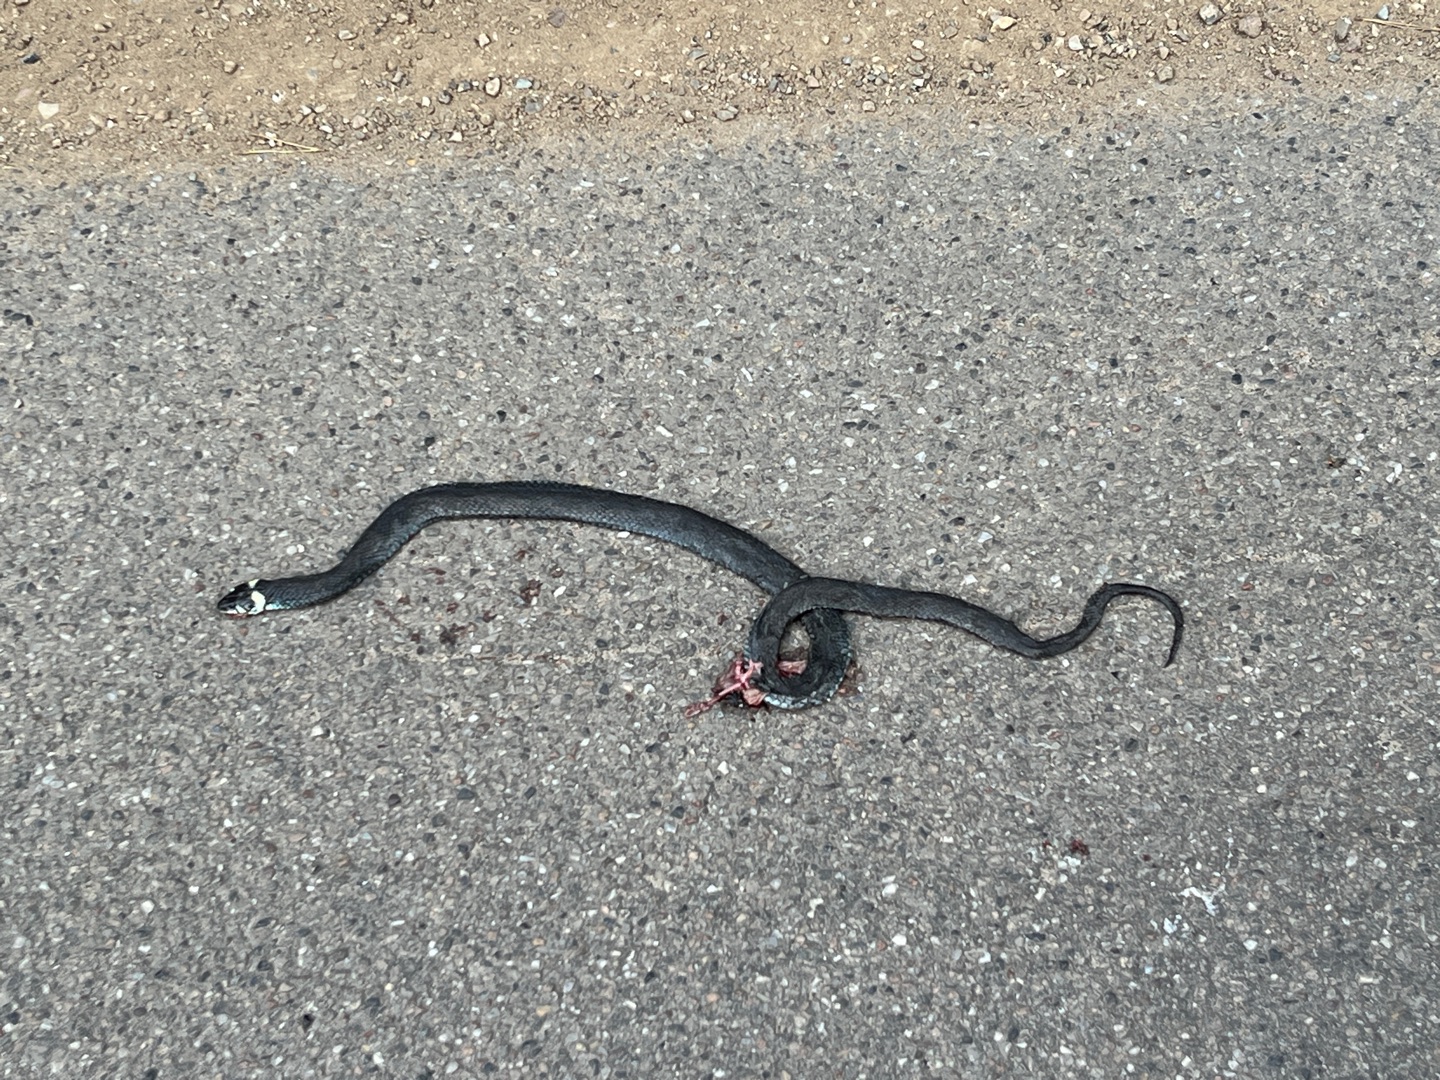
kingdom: Animalia
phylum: Chordata
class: Squamata
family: Colubridae
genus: Natrix
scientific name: Natrix natrix
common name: Snog
